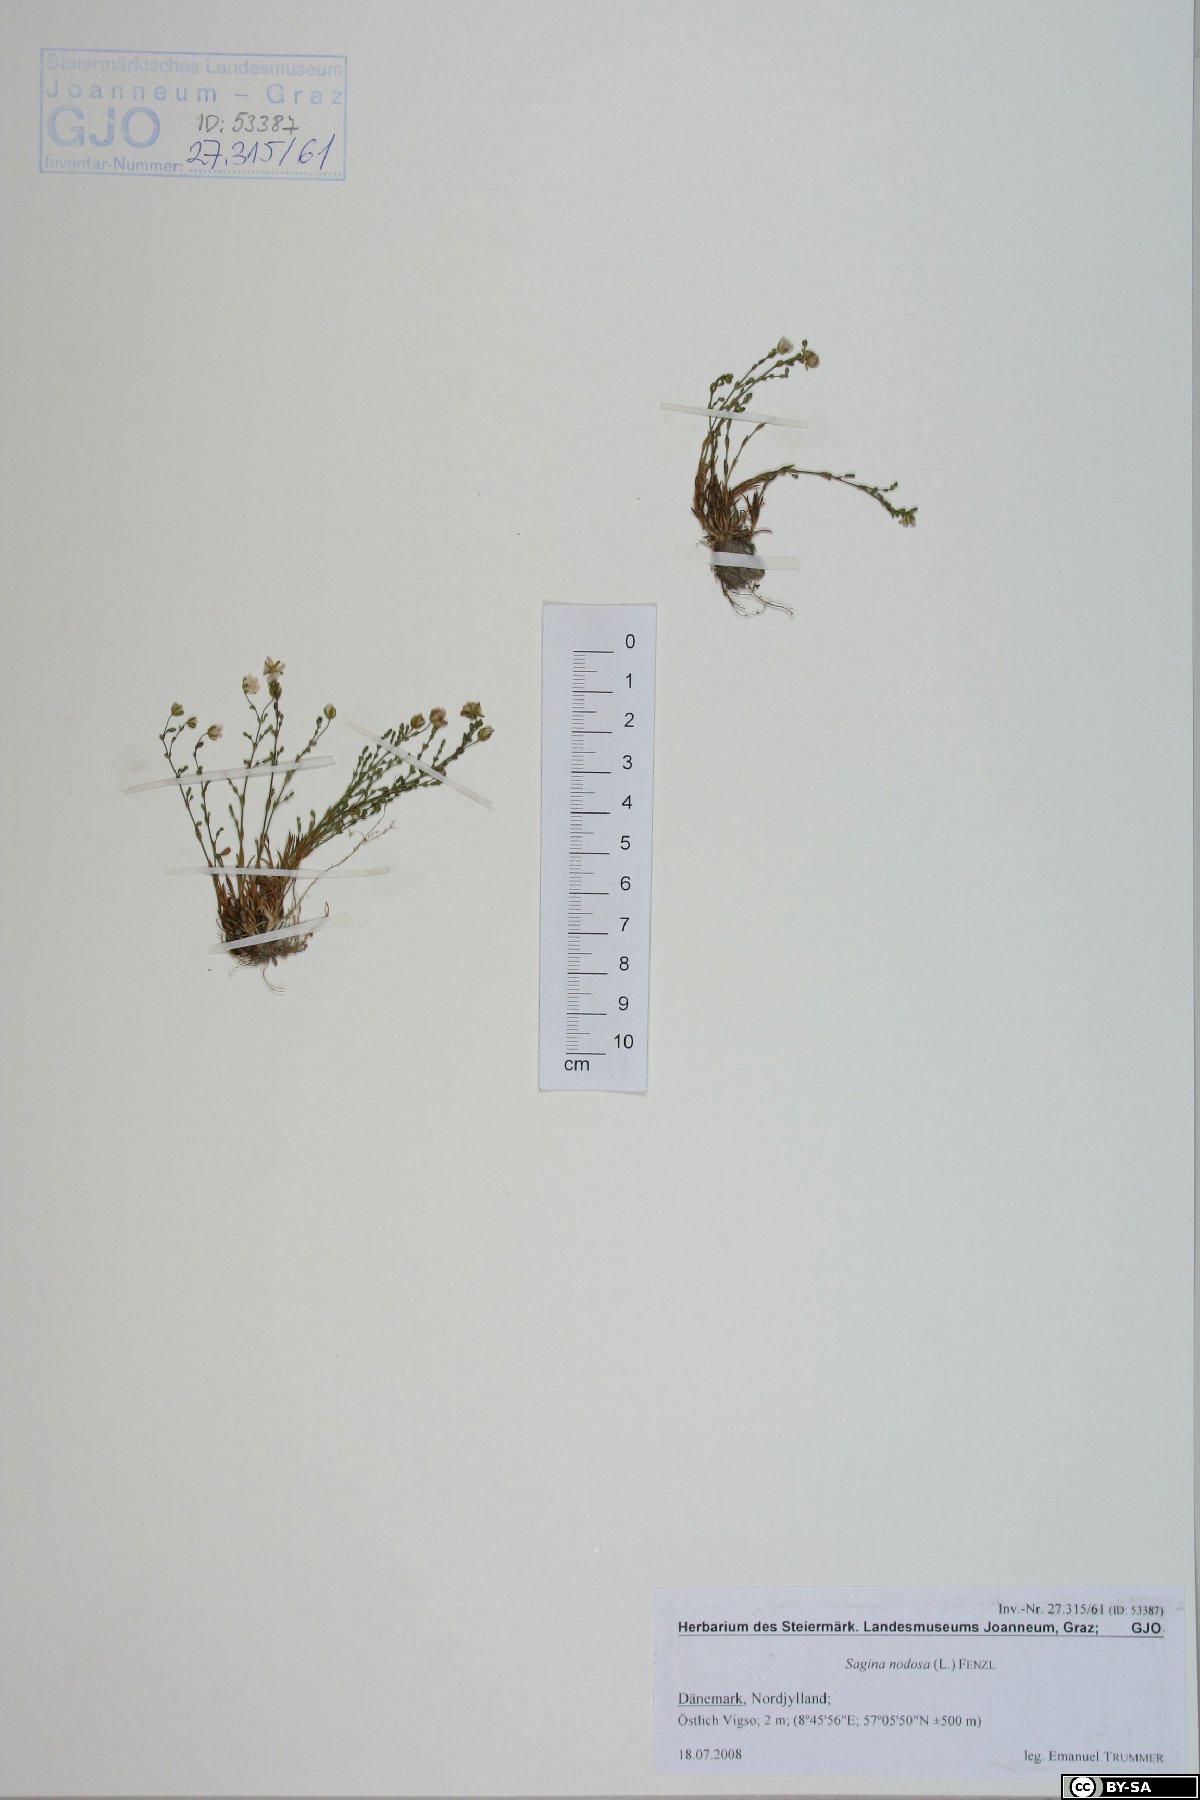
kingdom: Plantae
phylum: Tracheophyta
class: Magnoliopsida
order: Caryophyllales
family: Caryophyllaceae
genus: Sagina
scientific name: Sagina nodosa
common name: Knotted pearlwort
